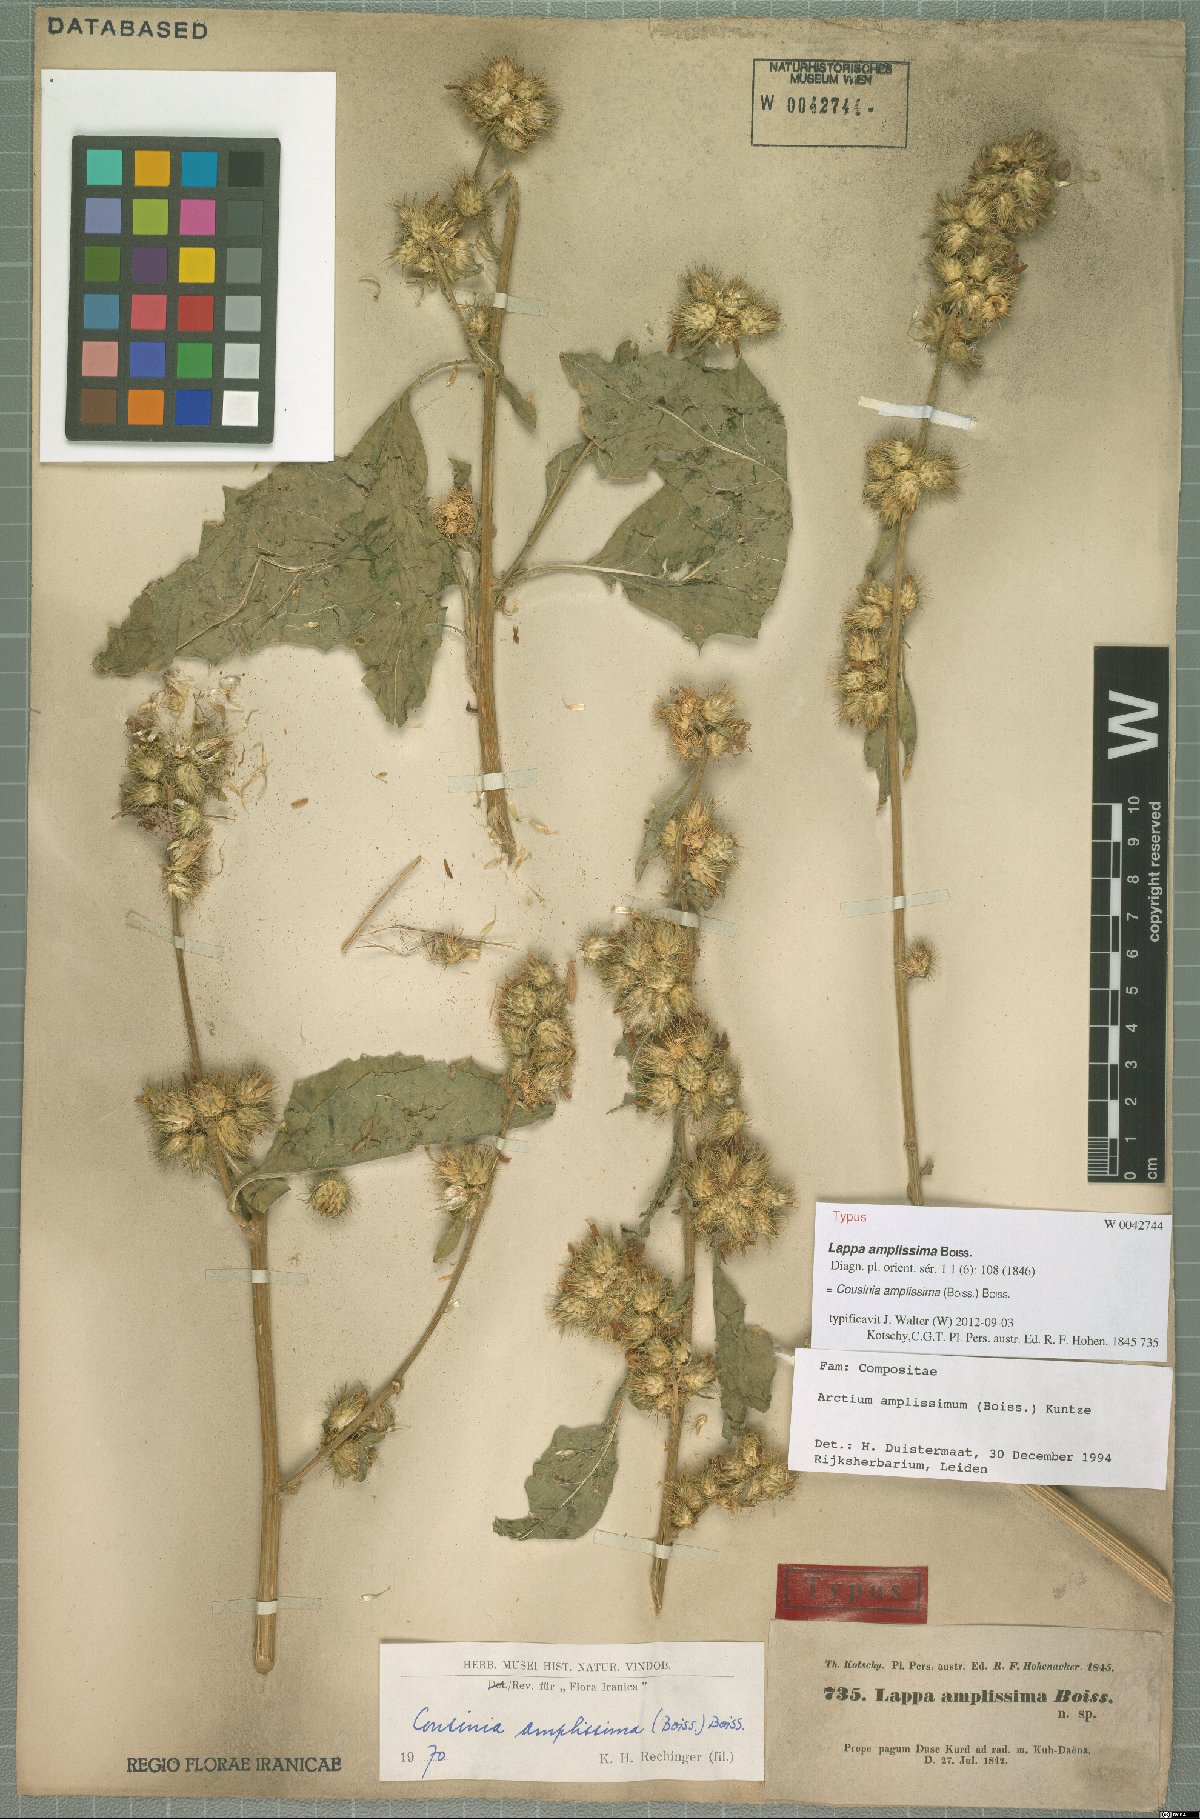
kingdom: Plantae
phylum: Tracheophyta
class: Magnoliopsida
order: Asterales
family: Asteraceae
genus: Arctium
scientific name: Arctium amplissimum
